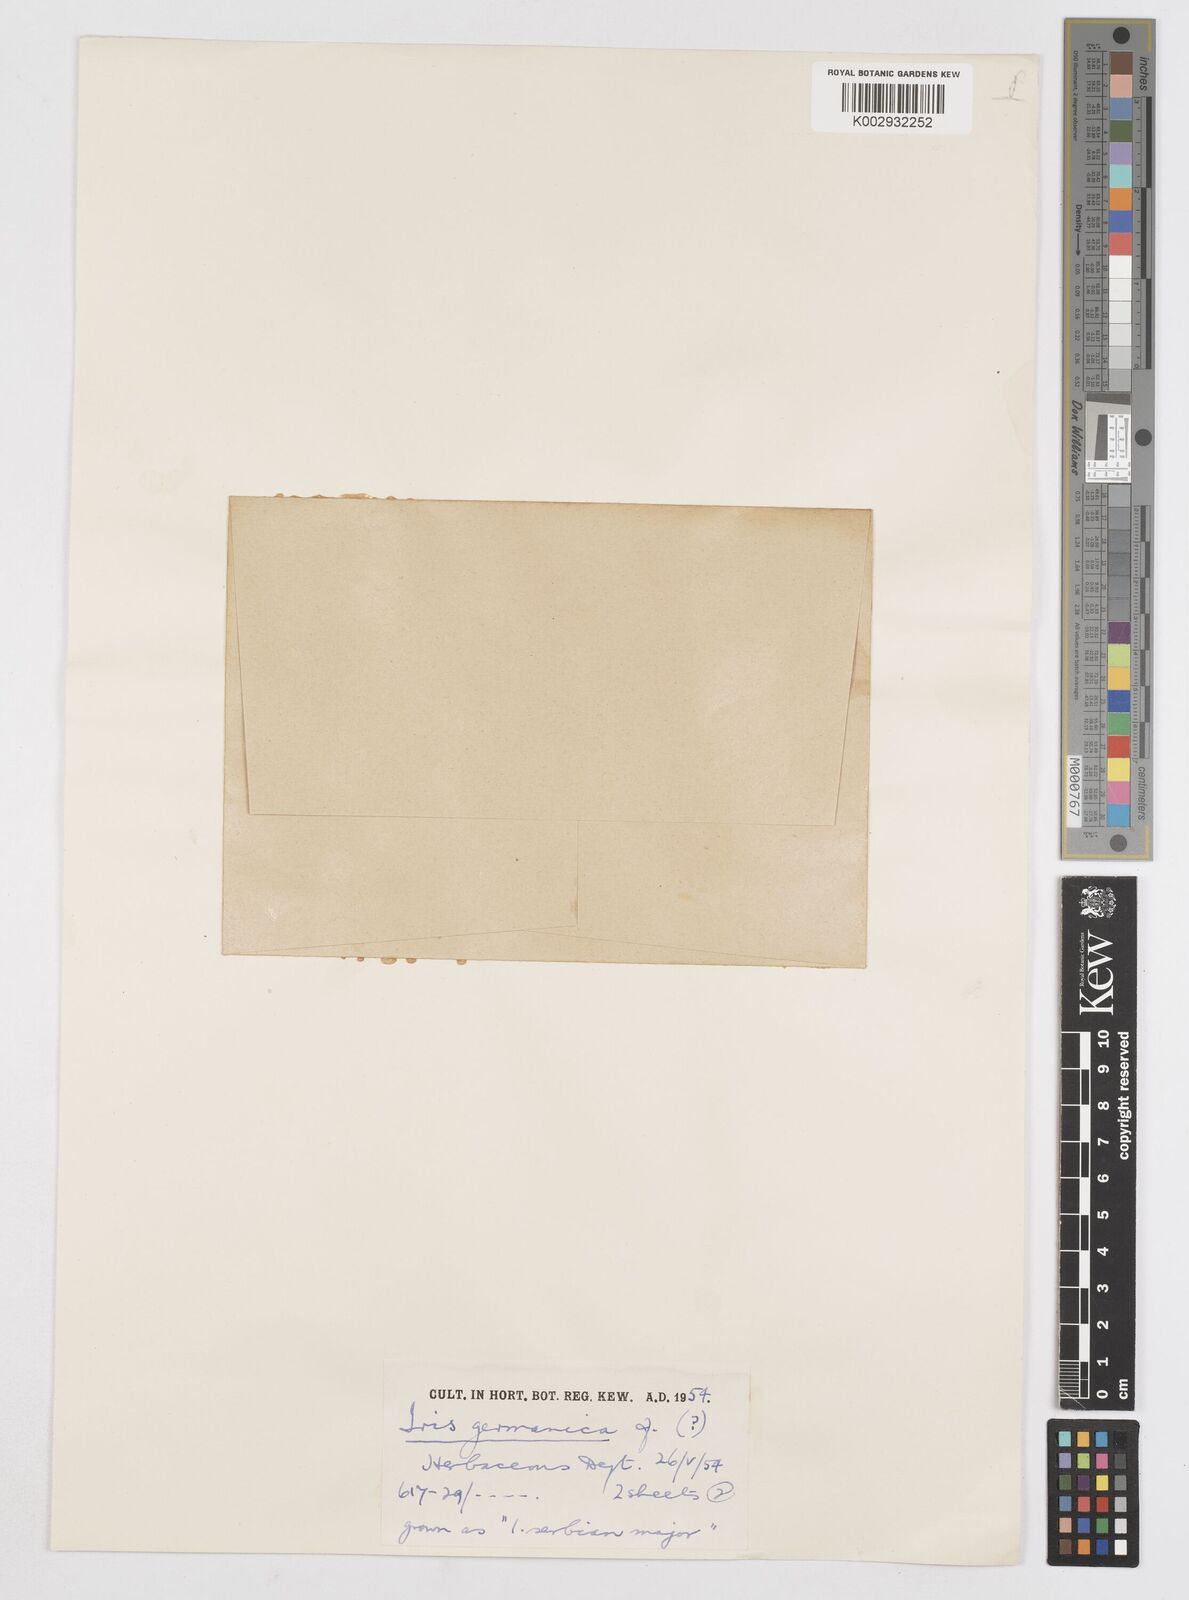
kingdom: Plantae
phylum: Tracheophyta
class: Liliopsida
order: Asparagales
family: Iridaceae
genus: Iris
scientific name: Iris
